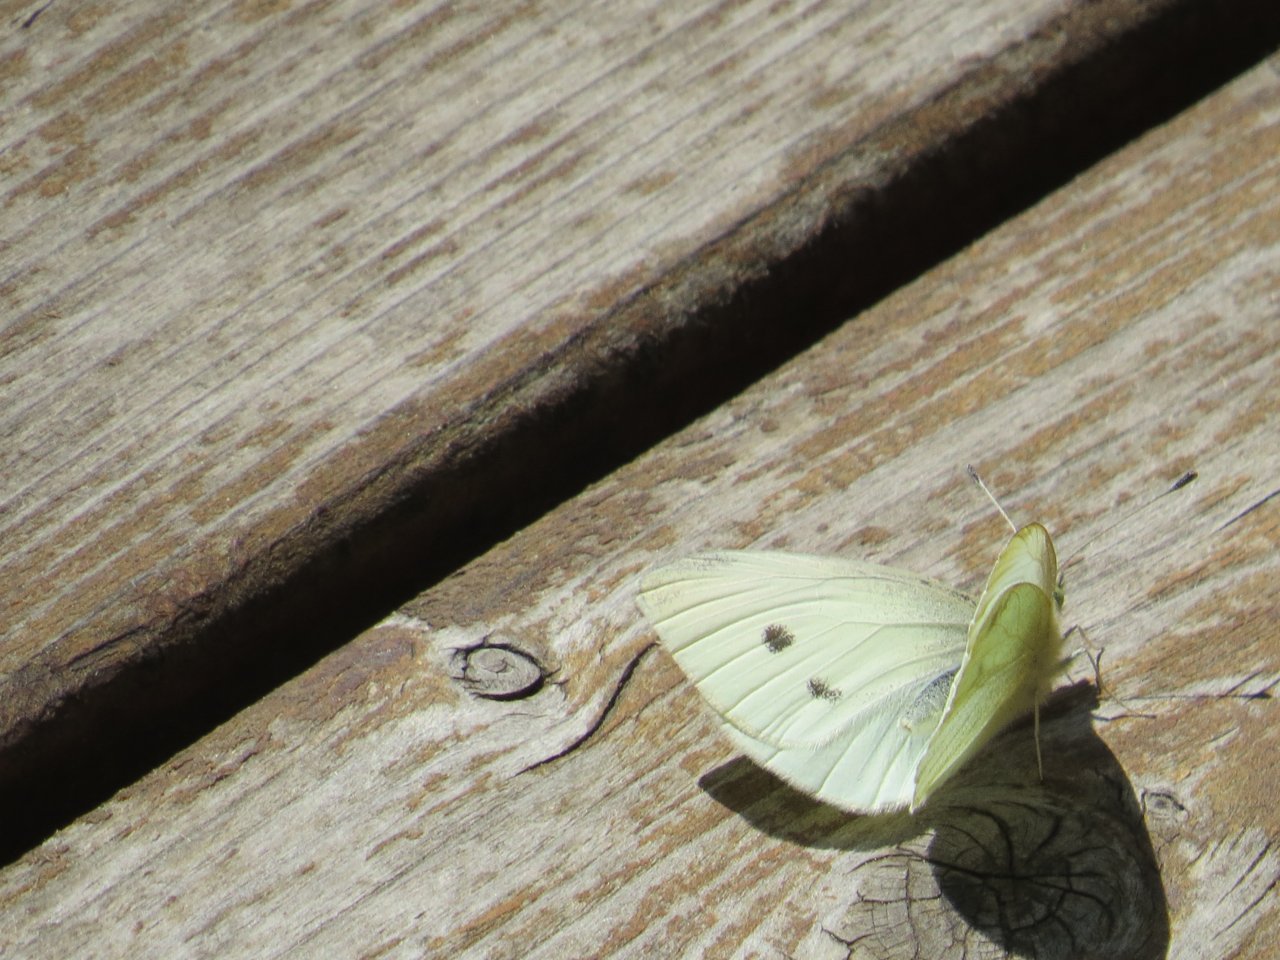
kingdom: Animalia
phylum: Arthropoda
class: Insecta
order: Lepidoptera
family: Pieridae
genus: Pieris
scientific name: Pieris rapae
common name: Cabbage White
